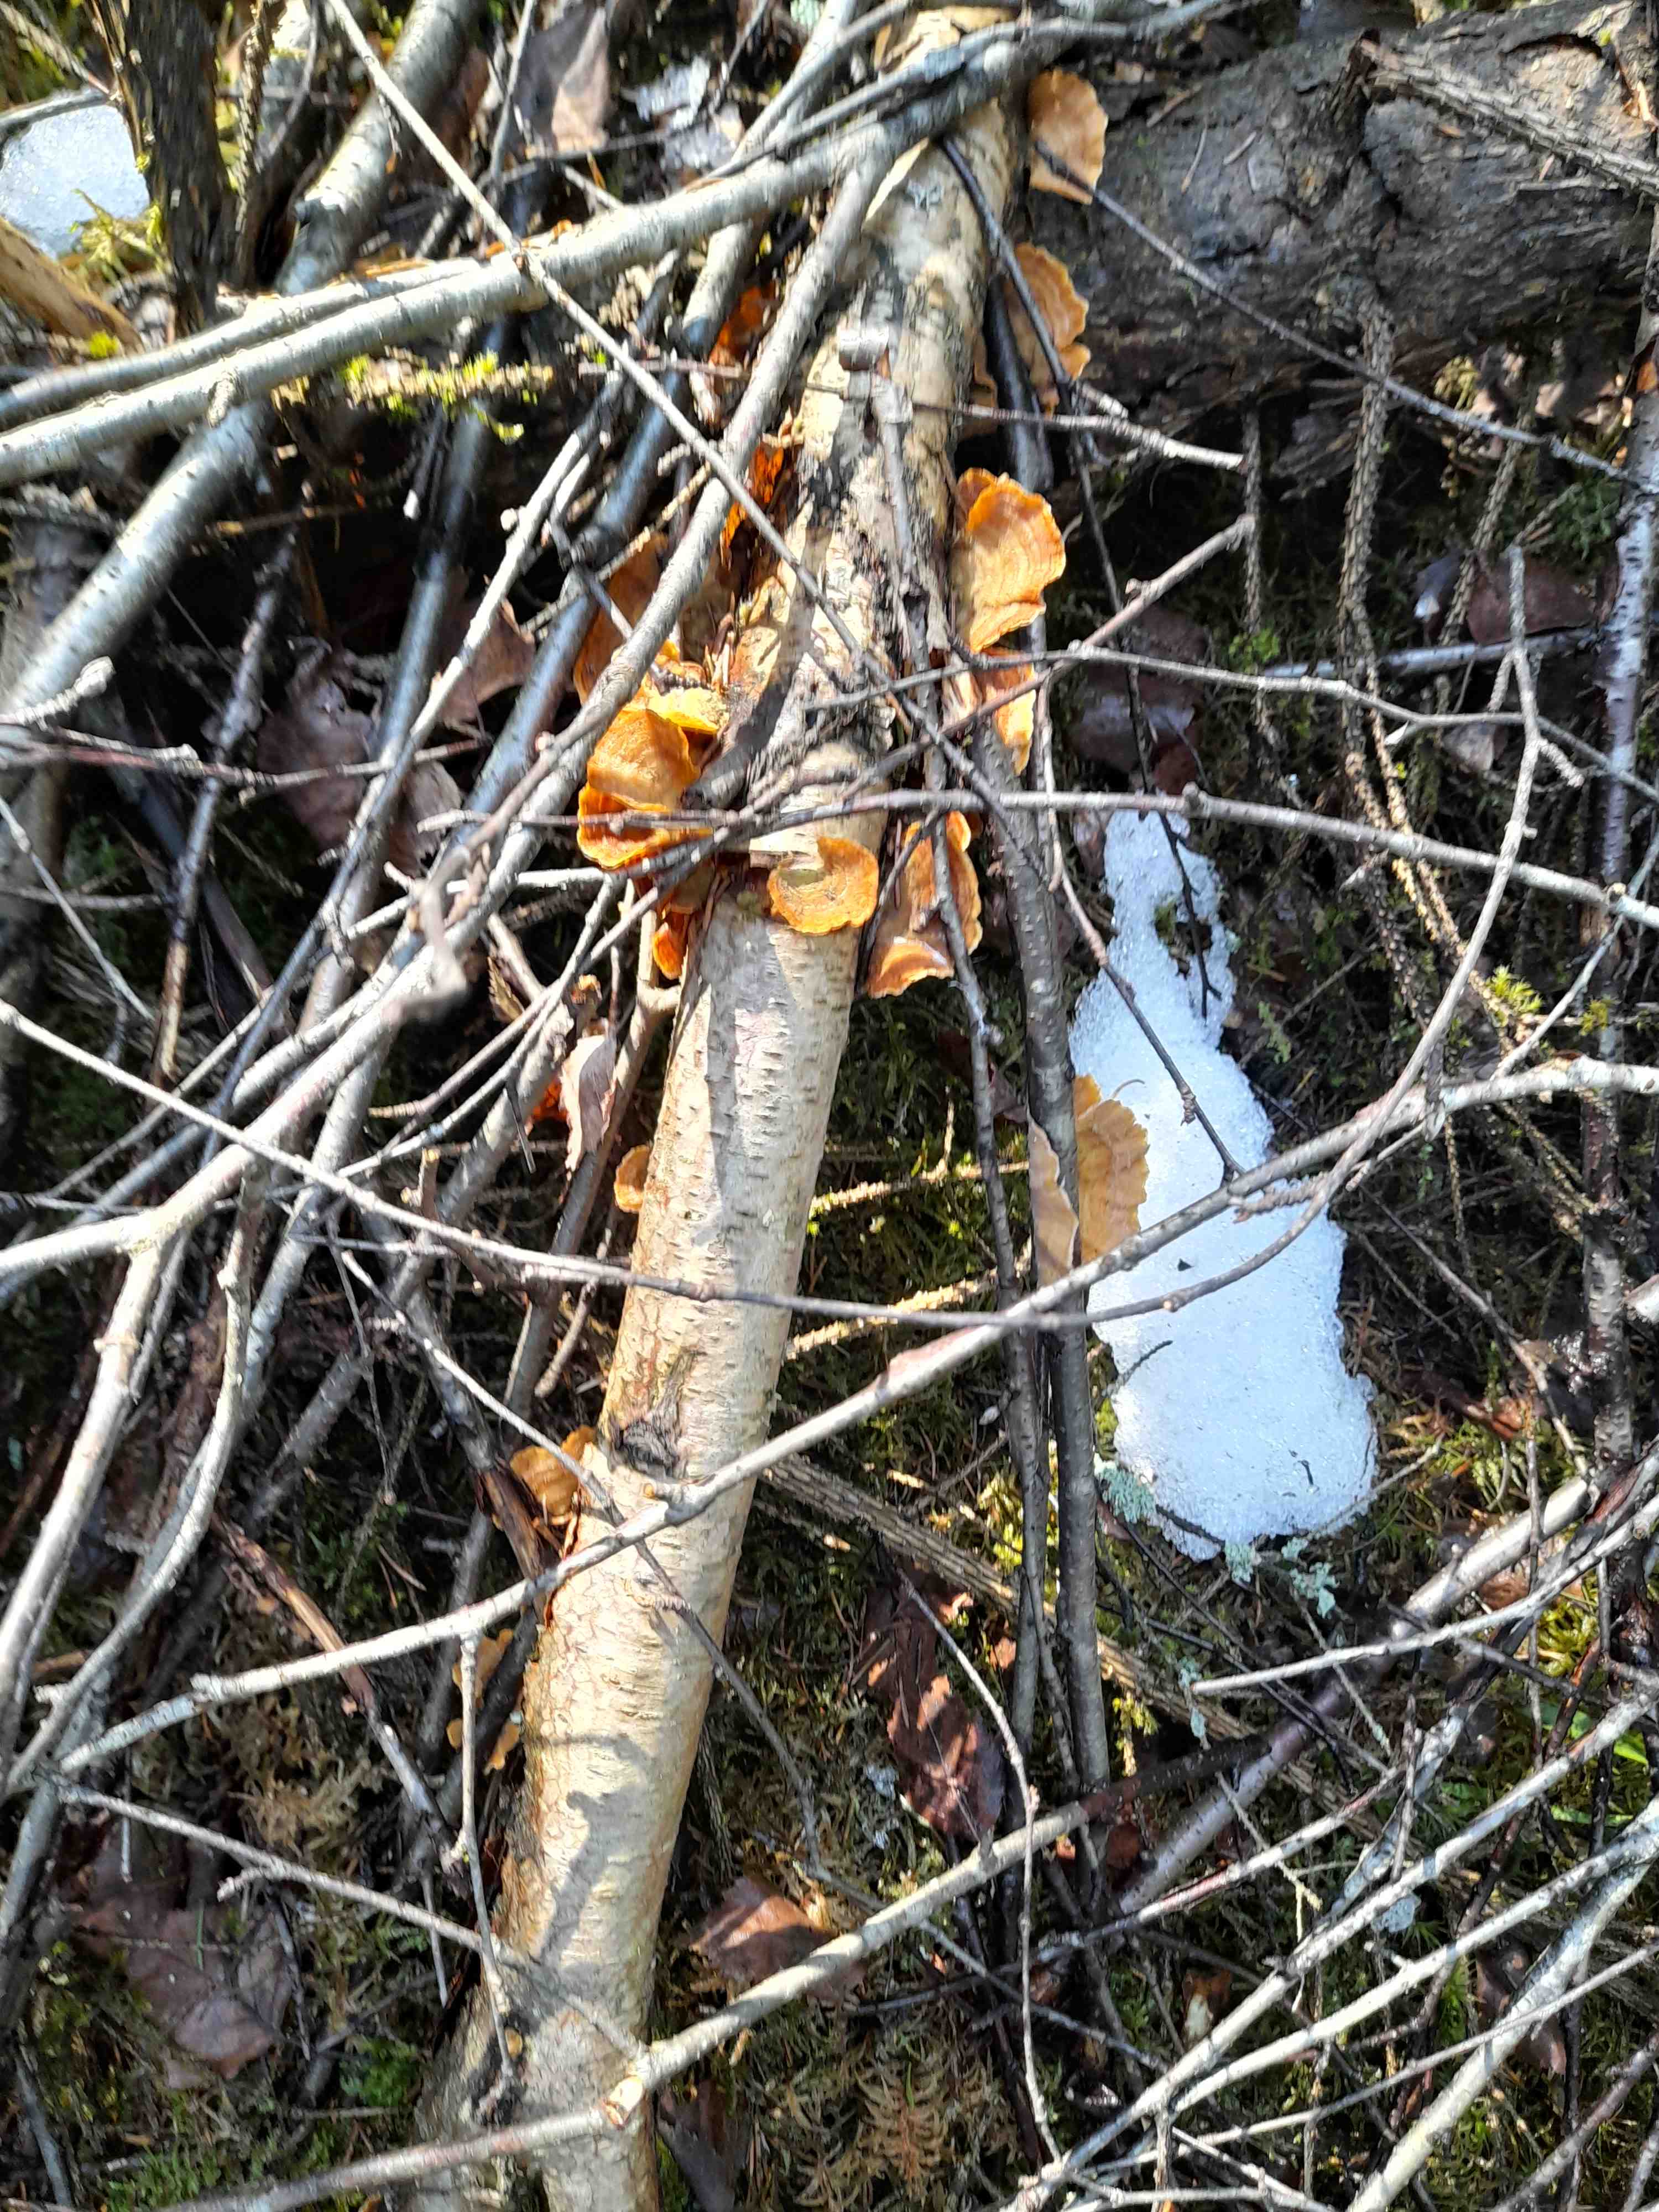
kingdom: Fungi
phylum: Basidiomycota
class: Agaricomycetes
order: Russulales
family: Stereaceae
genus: Stereum
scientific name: Stereum subtomentosum
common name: smuk lædersvamp
